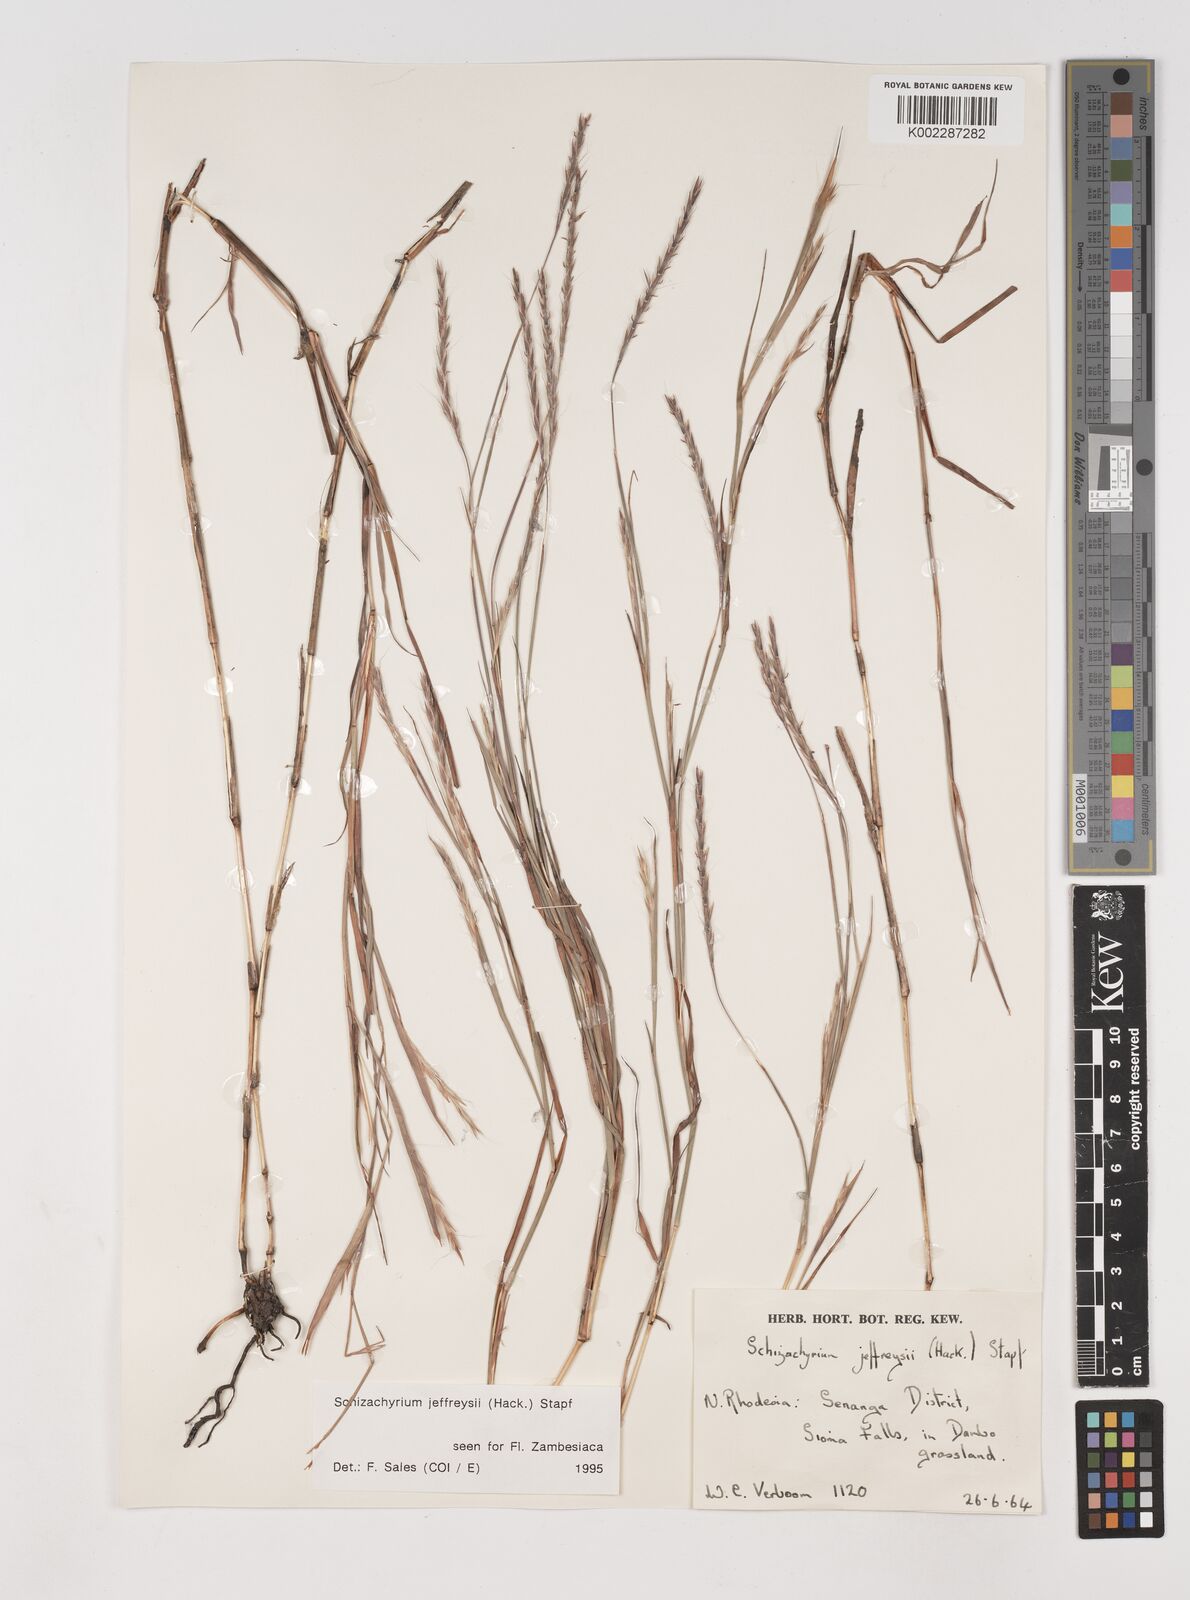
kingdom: Plantae
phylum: Tracheophyta
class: Liliopsida
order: Poales
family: Poaceae
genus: Schizachyrium
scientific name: Schizachyrium jeffreysii
